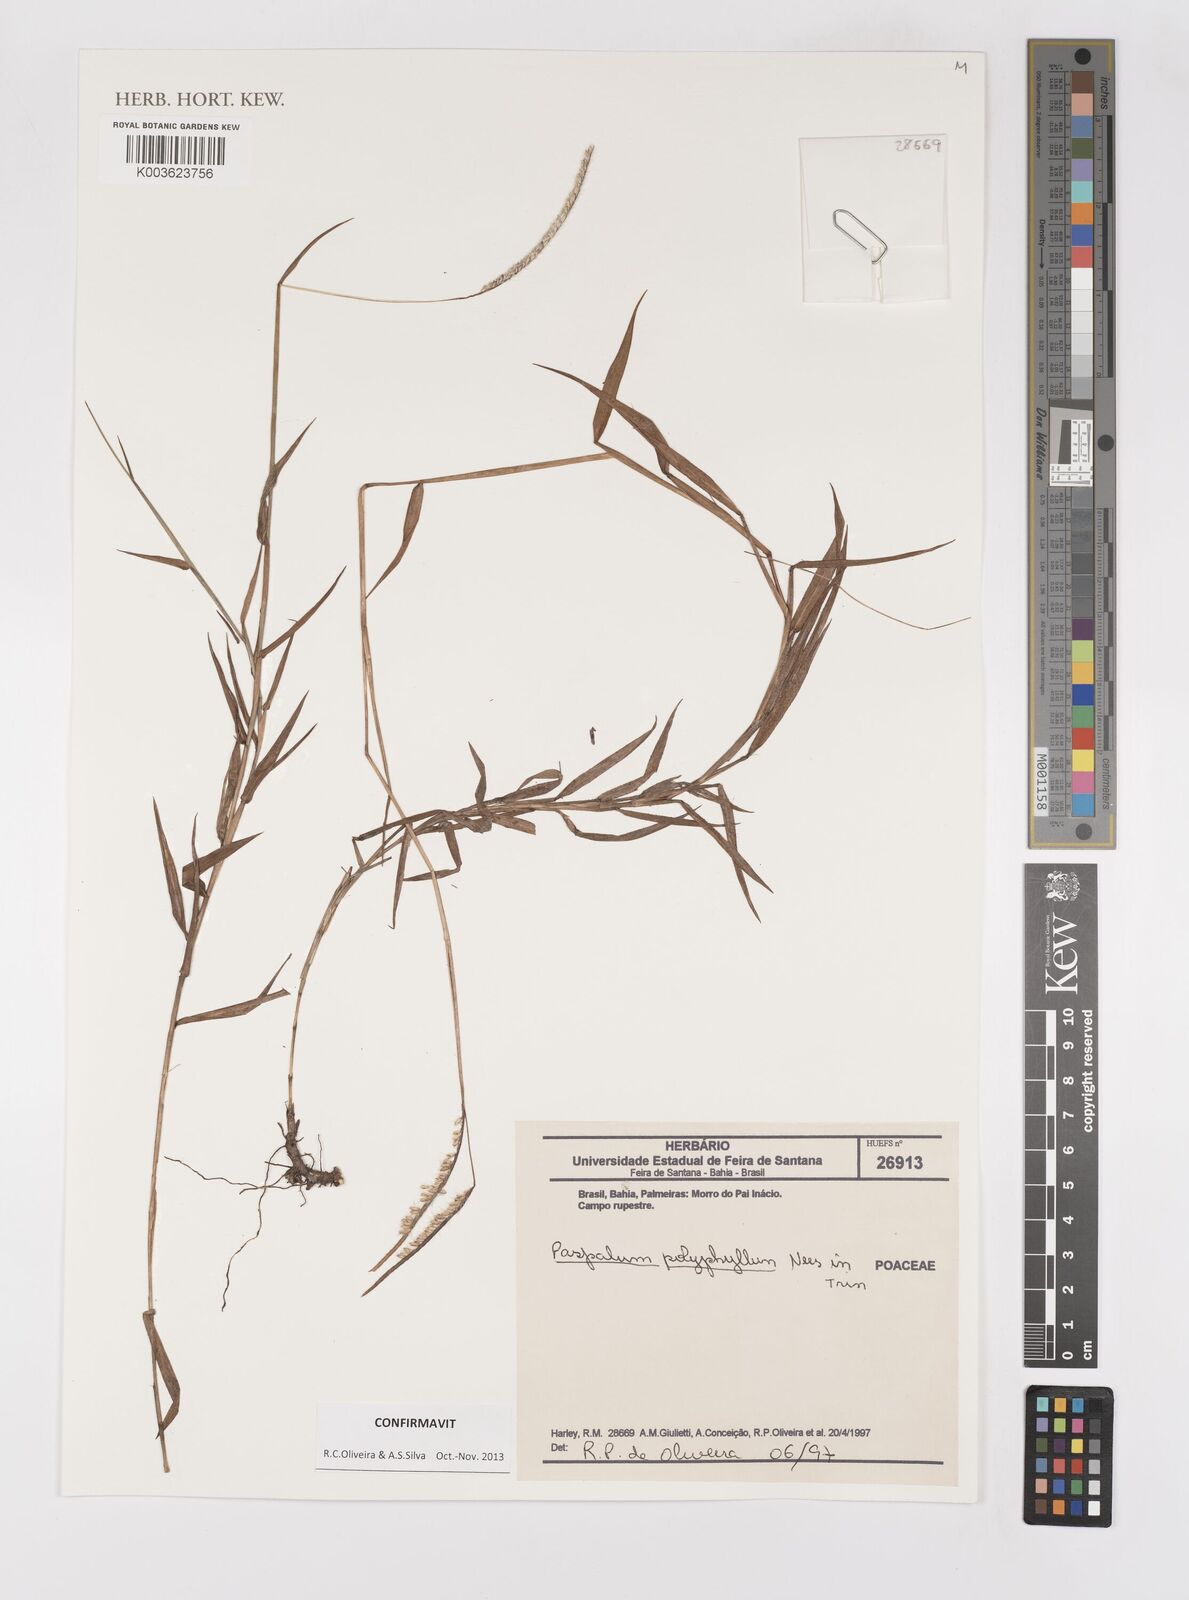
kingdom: Plantae
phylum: Tracheophyta
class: Liliopsida
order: Poales
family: Poaceae
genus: Paspalum
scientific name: Paspalum polyphyllum
